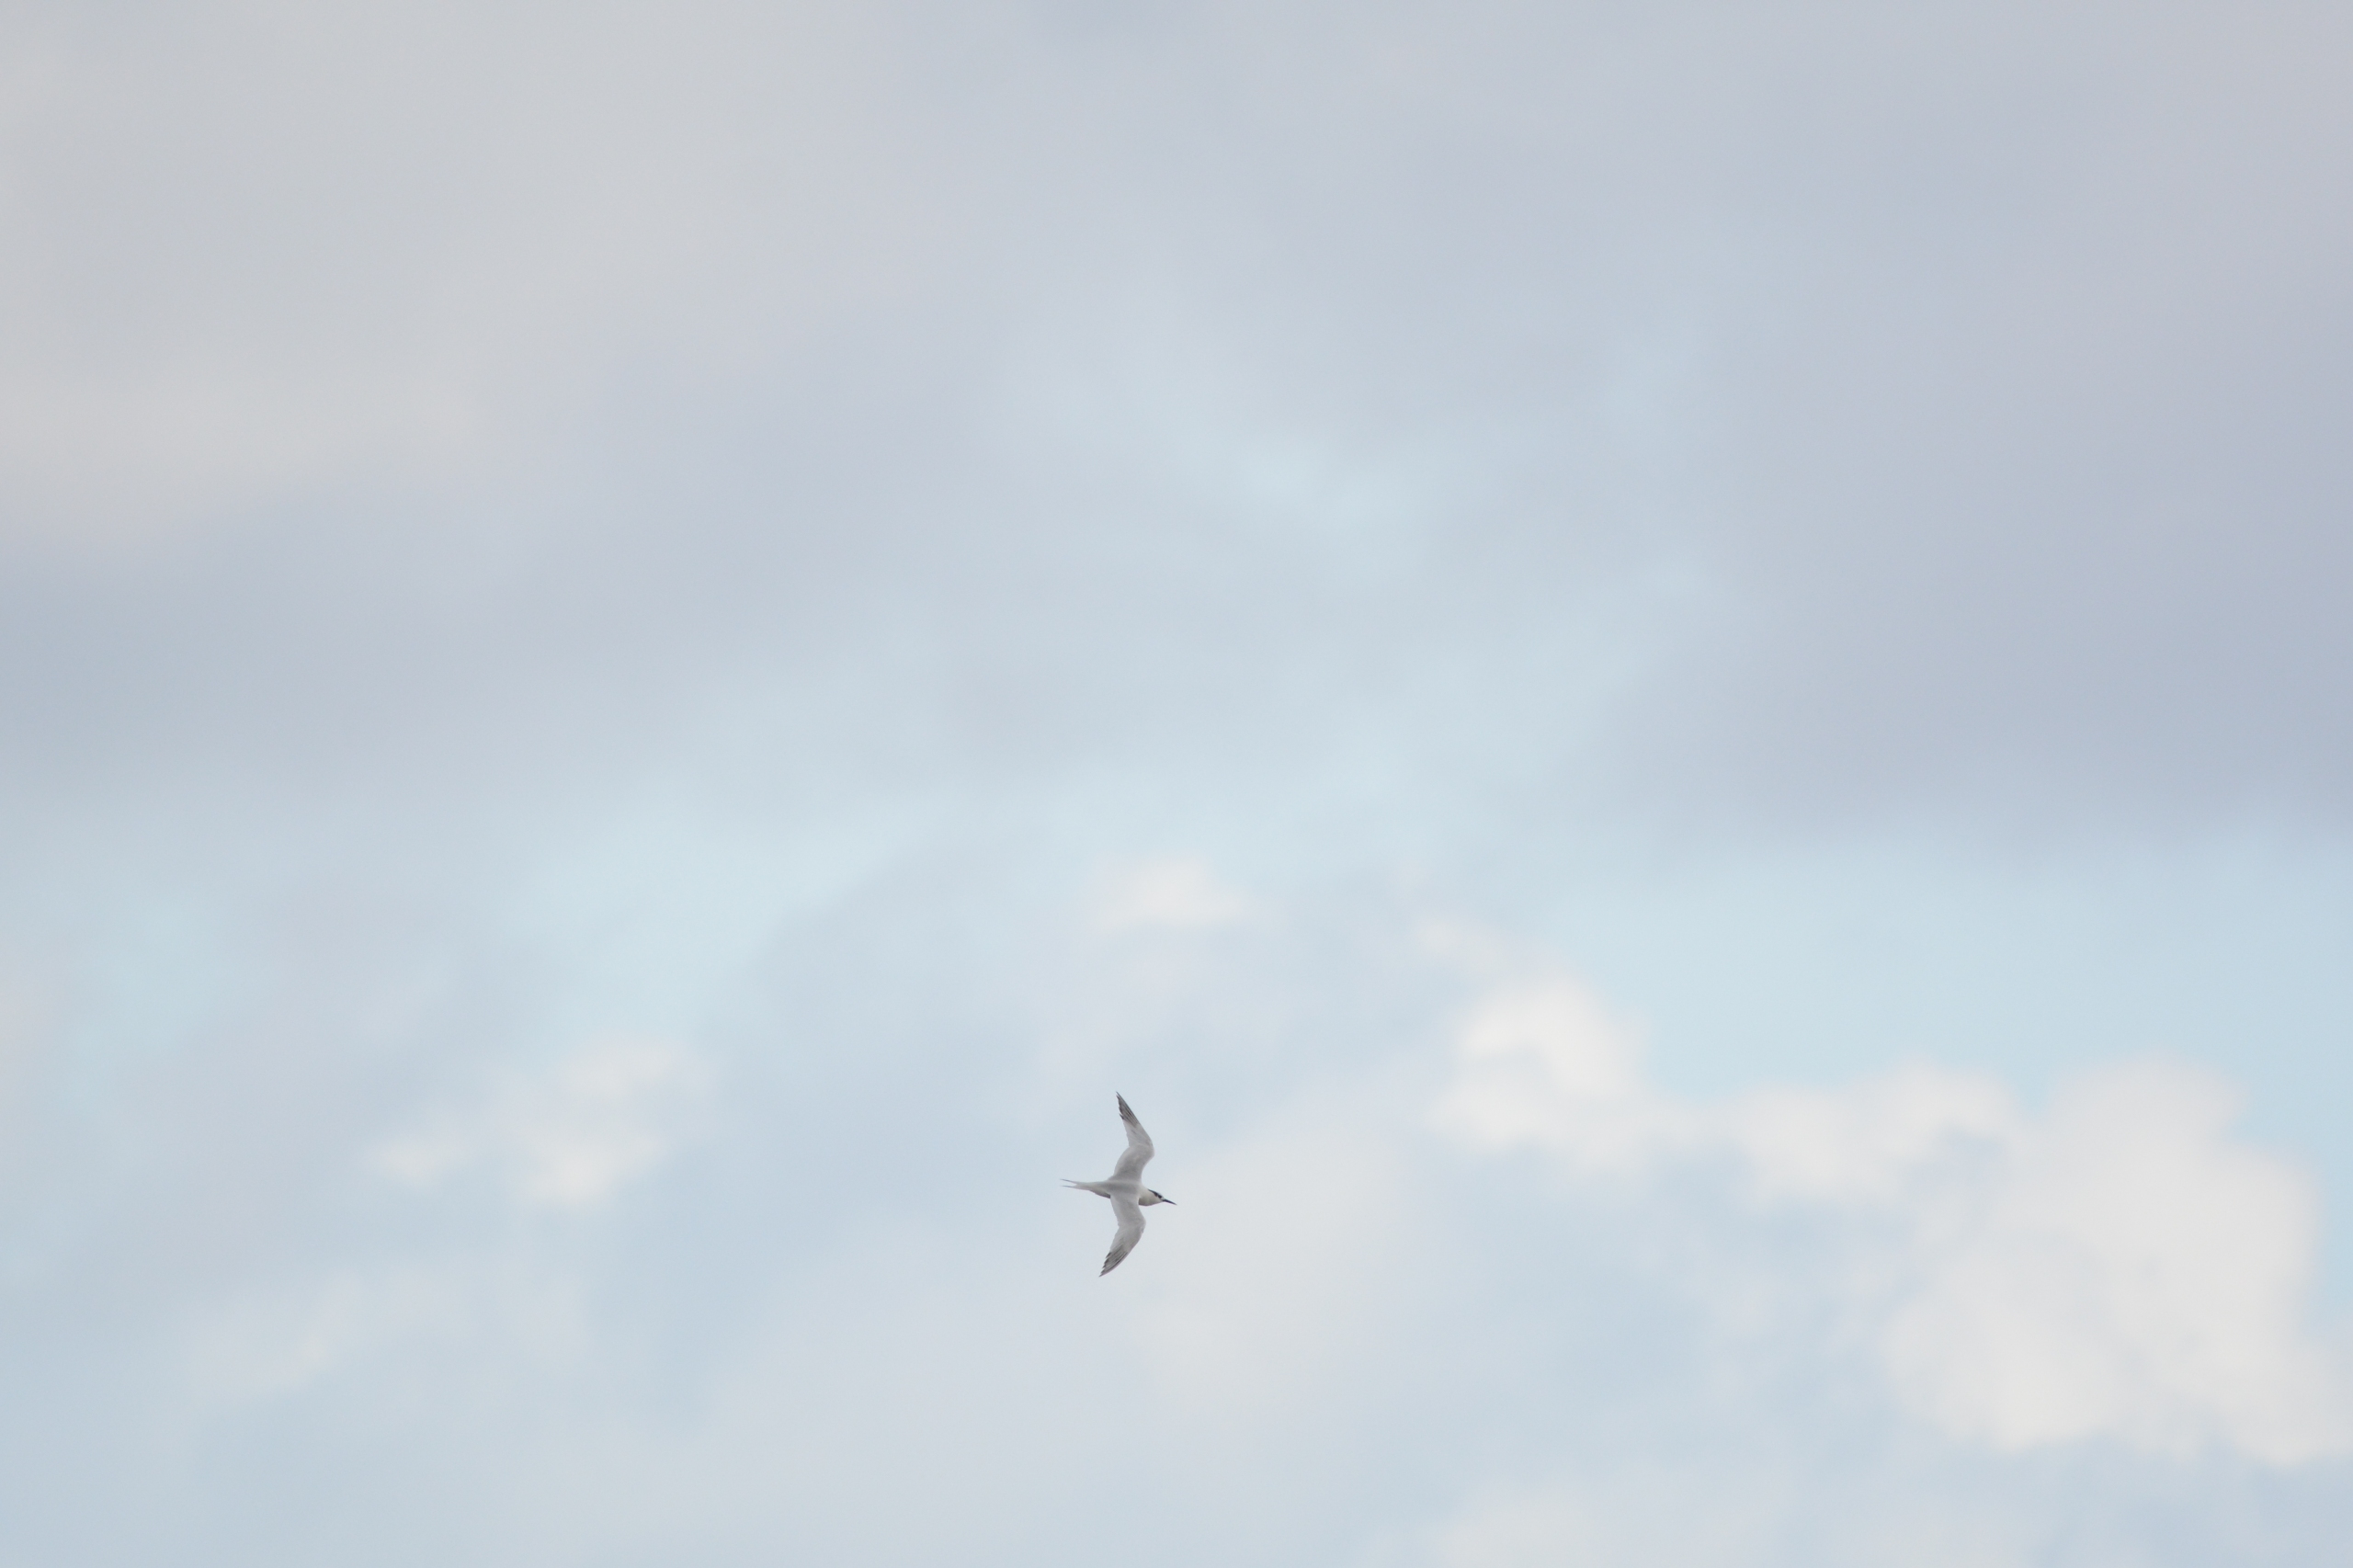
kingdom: Animalia
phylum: Chordata
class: Aves
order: Charadriiformes
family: Laridae
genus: Thalasseus
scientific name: Thalasseus sandvicensis
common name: Splitterne
